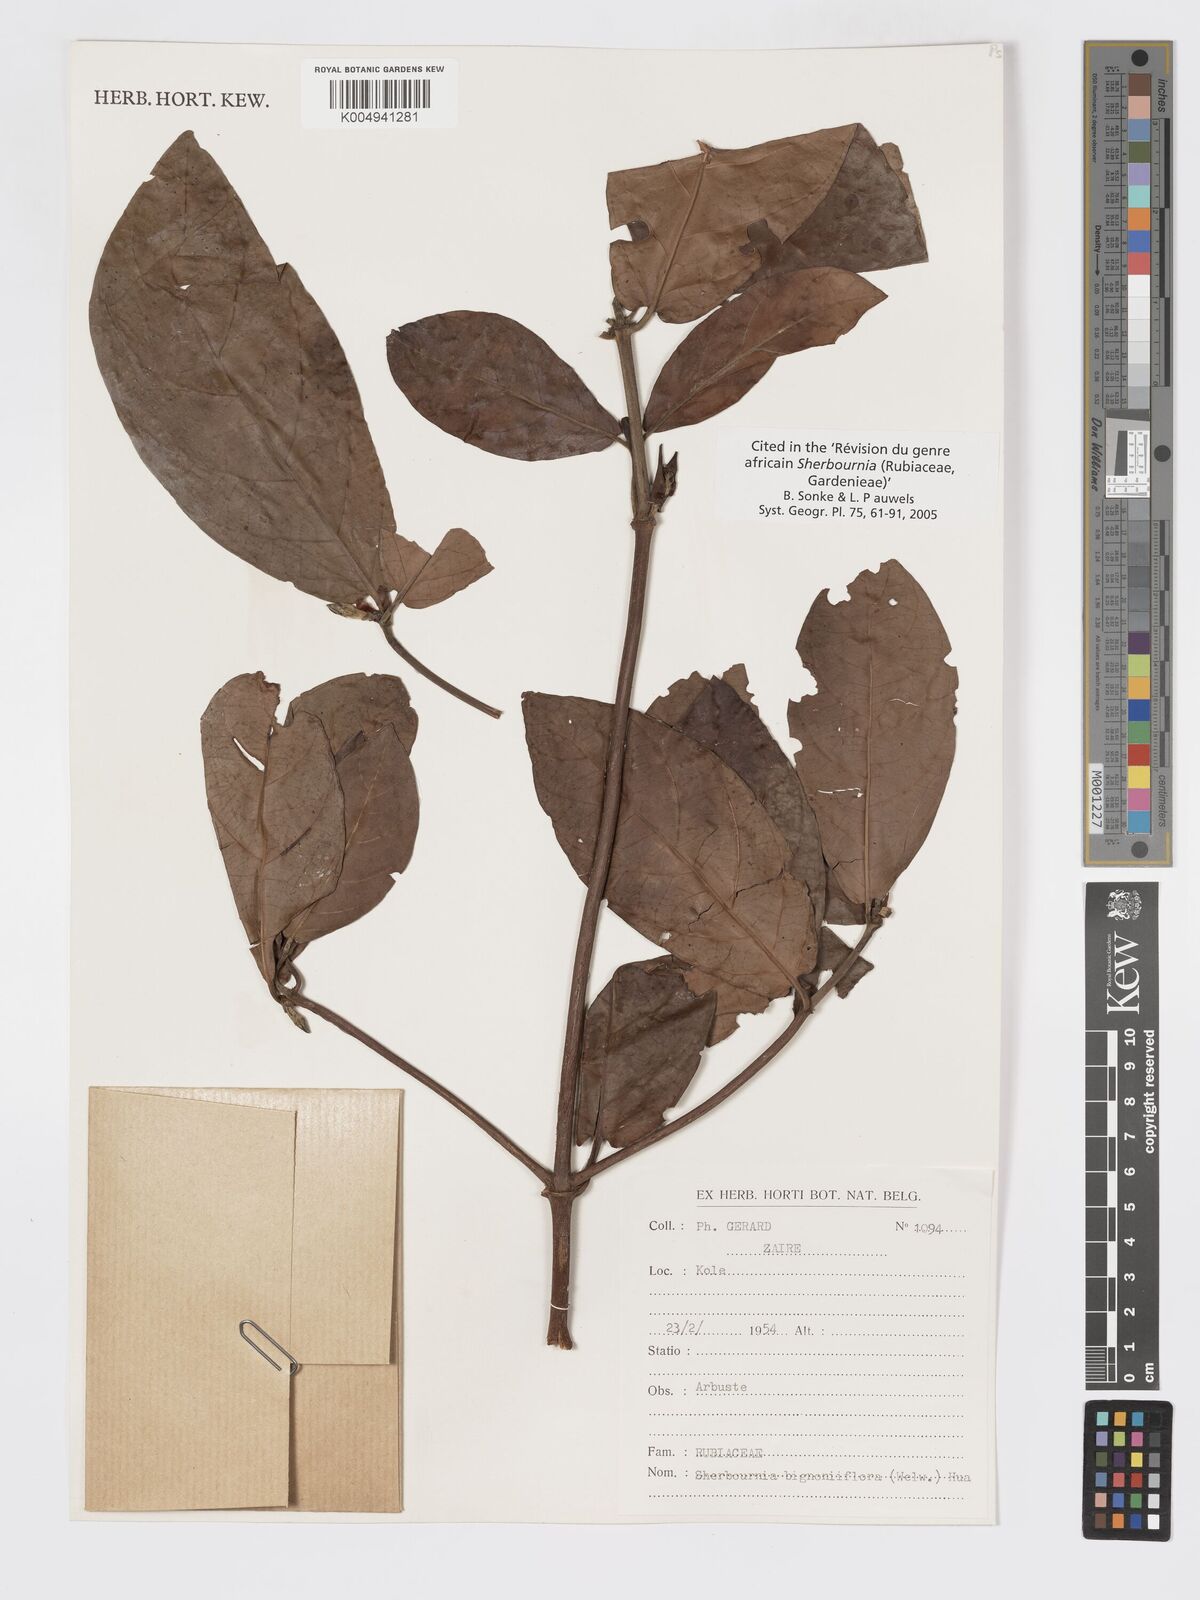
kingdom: Plantae
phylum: Tracheophyta
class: Magnoliopsida
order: Gentianales
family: Rubiaceae
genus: Sherbournia
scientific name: Sherbournia bignoniiflora
